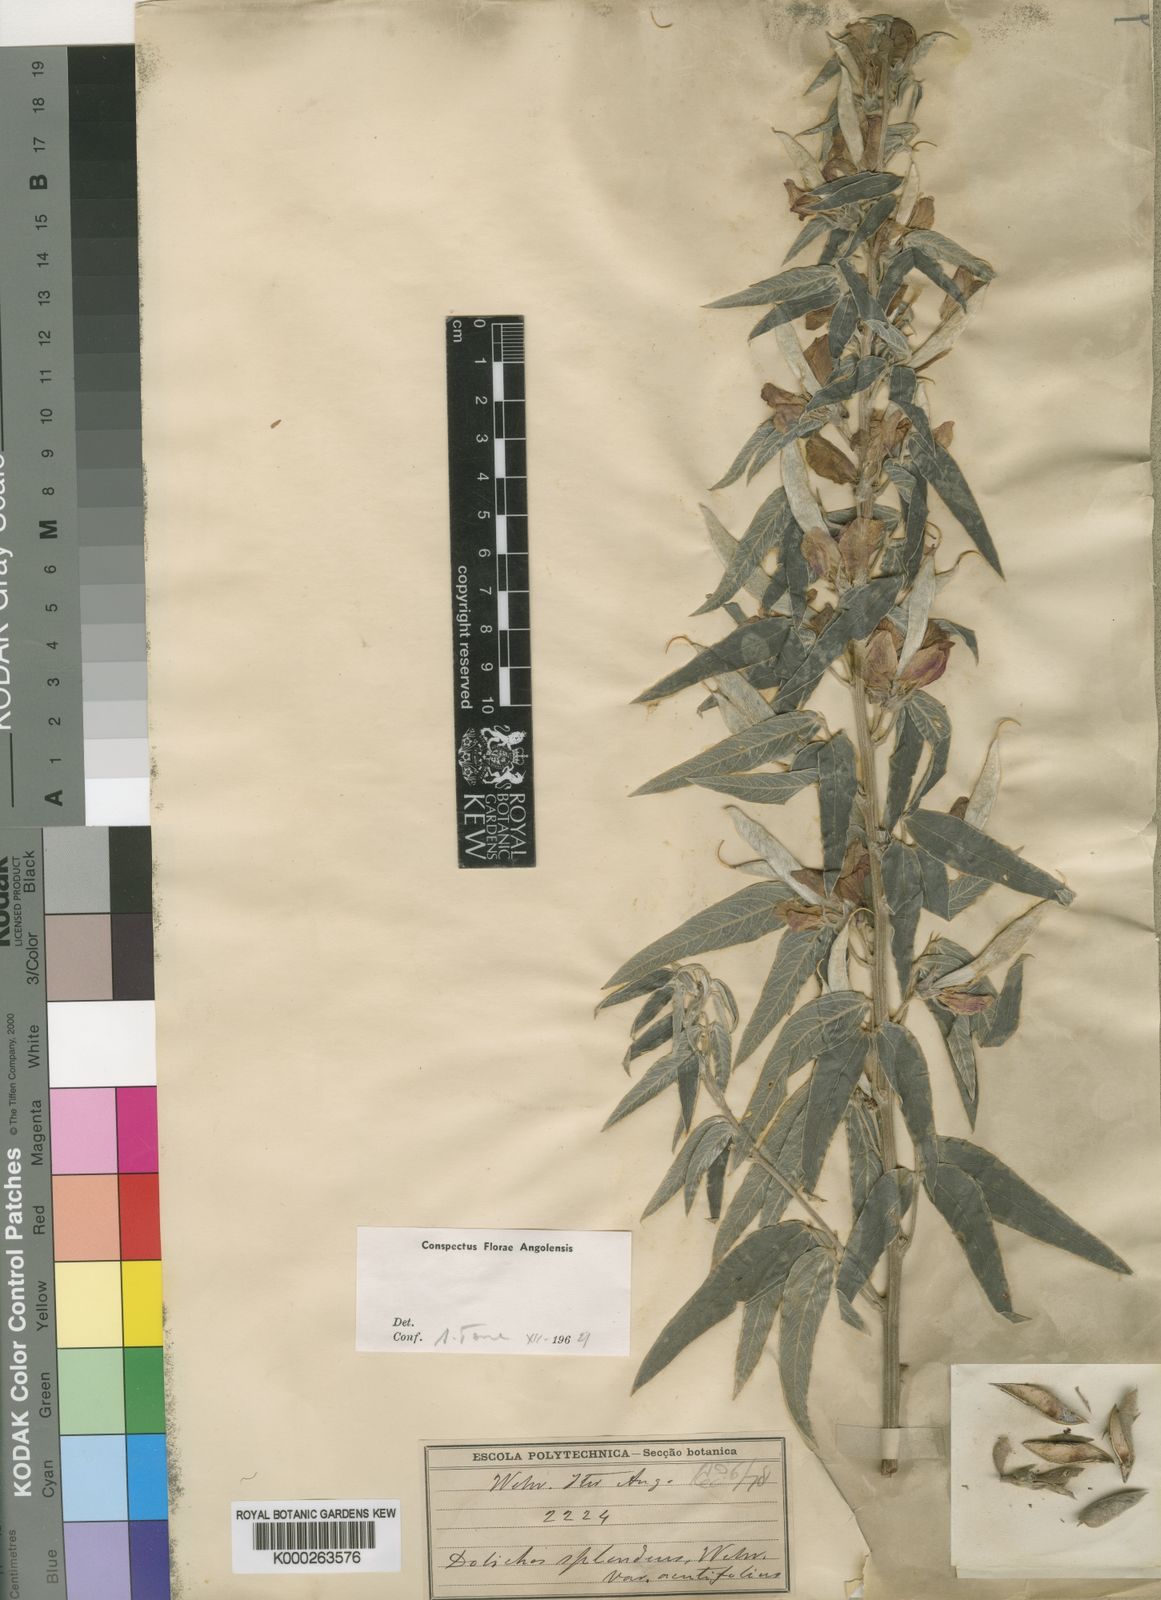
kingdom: Plantae
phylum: Tracheophyta
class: Magnoliopsida
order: Fabales
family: Fabaceae
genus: Dolichos
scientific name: Dolichos splendens
